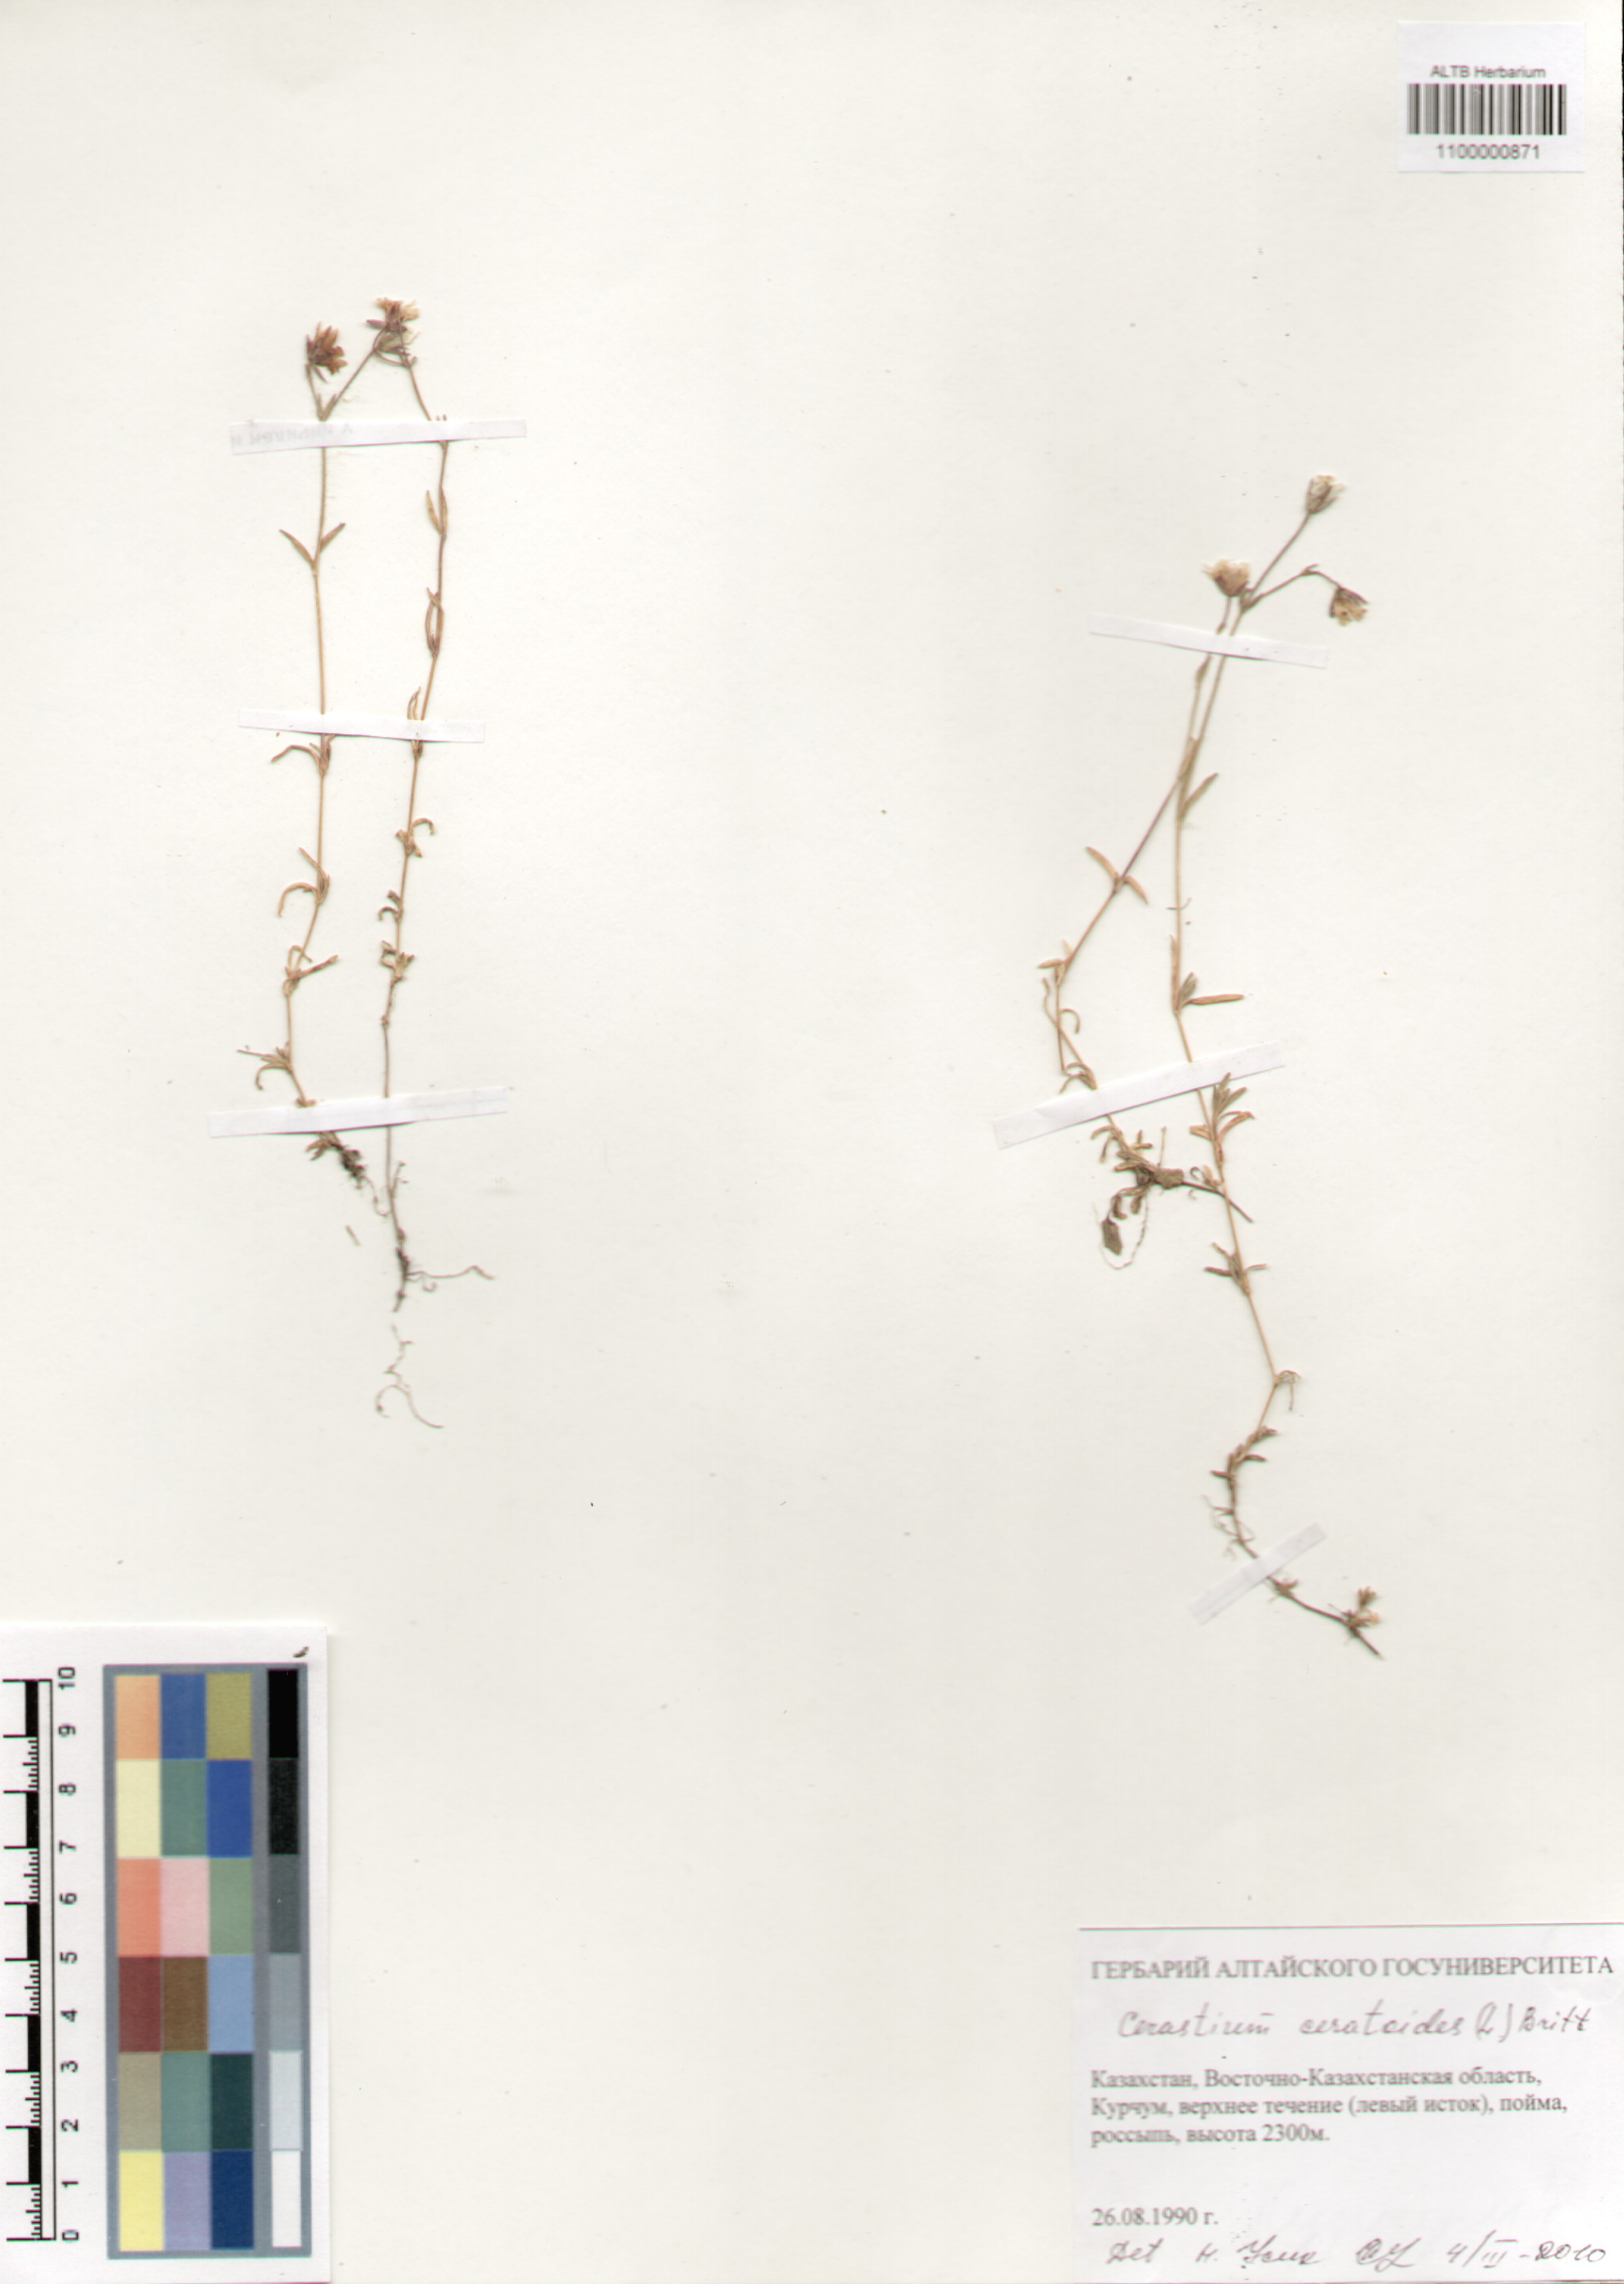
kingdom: Plantae
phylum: Tracheophyta
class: Magnoliopsida
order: Caryophyllales
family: Caryophyllaceae
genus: Dichodon
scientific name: Dichodon cerastoides
